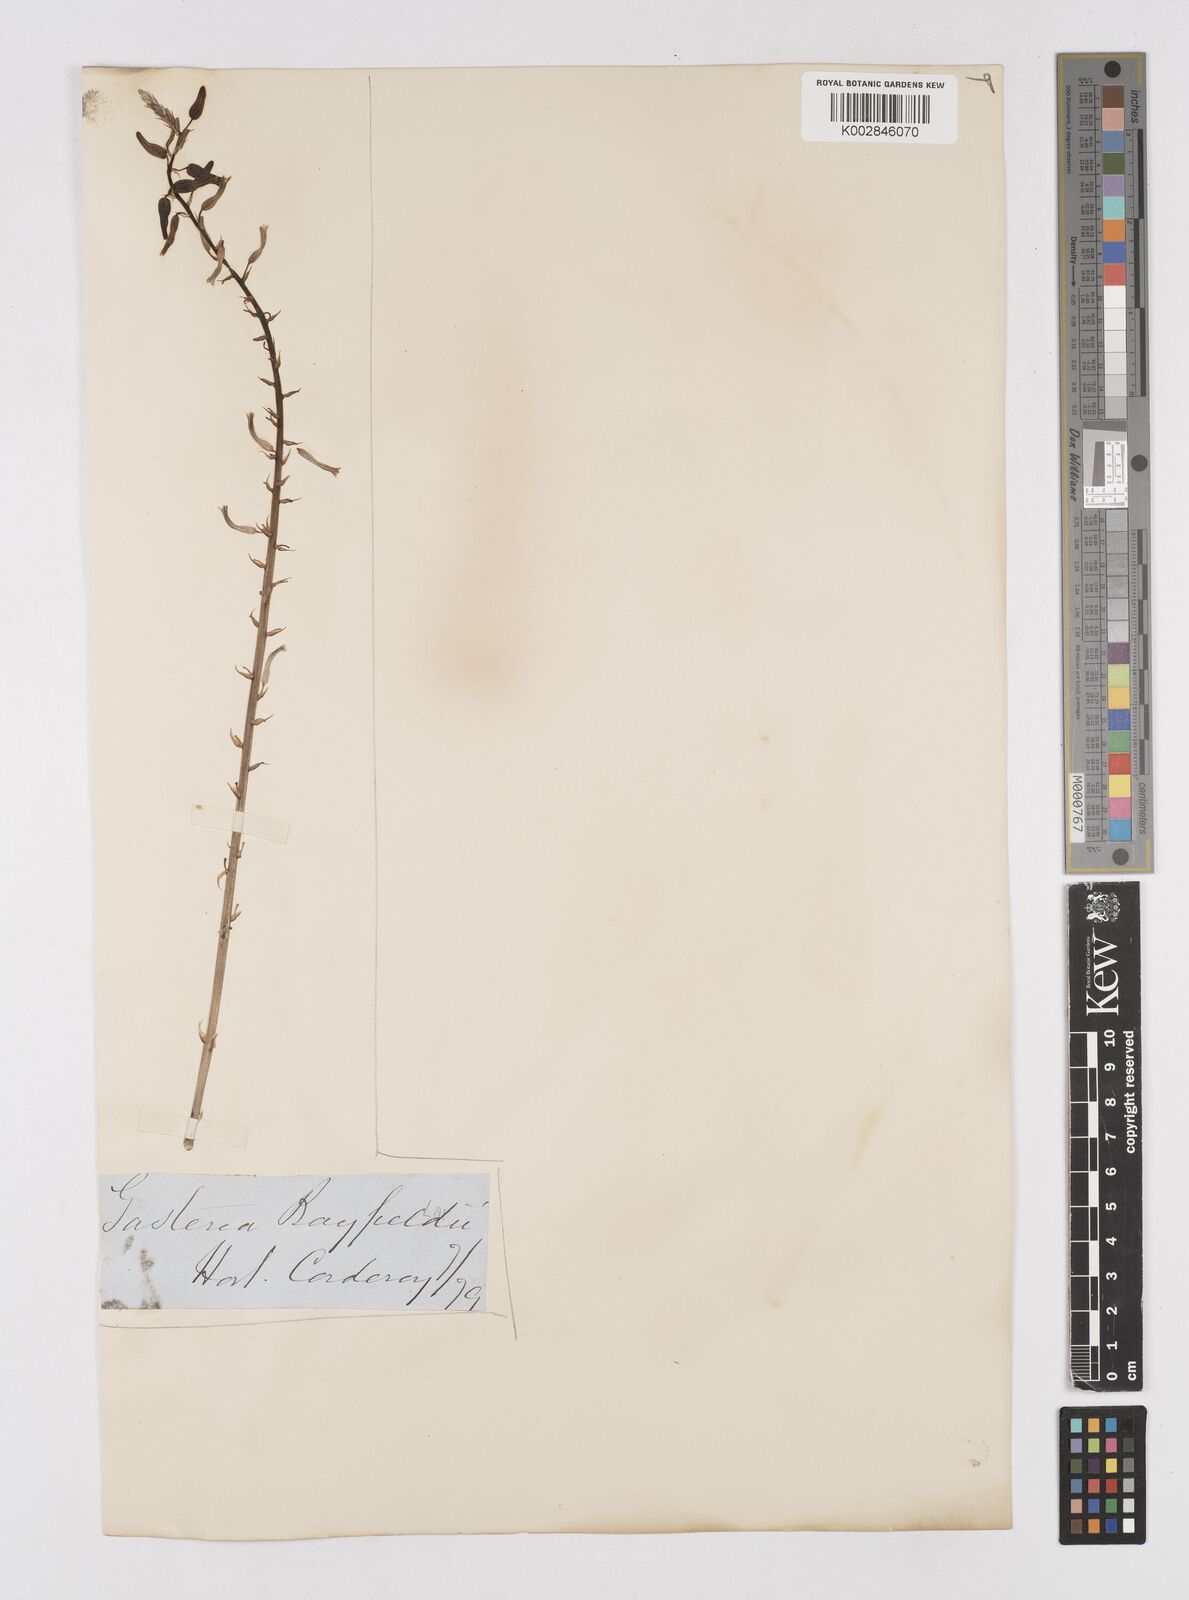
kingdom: Plantae
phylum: Tracheophyta
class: Liliopsida
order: Asparagales
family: Asphodelaceae
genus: Gasterhaworthia
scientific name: Gasterhaworthia bayfieldii
